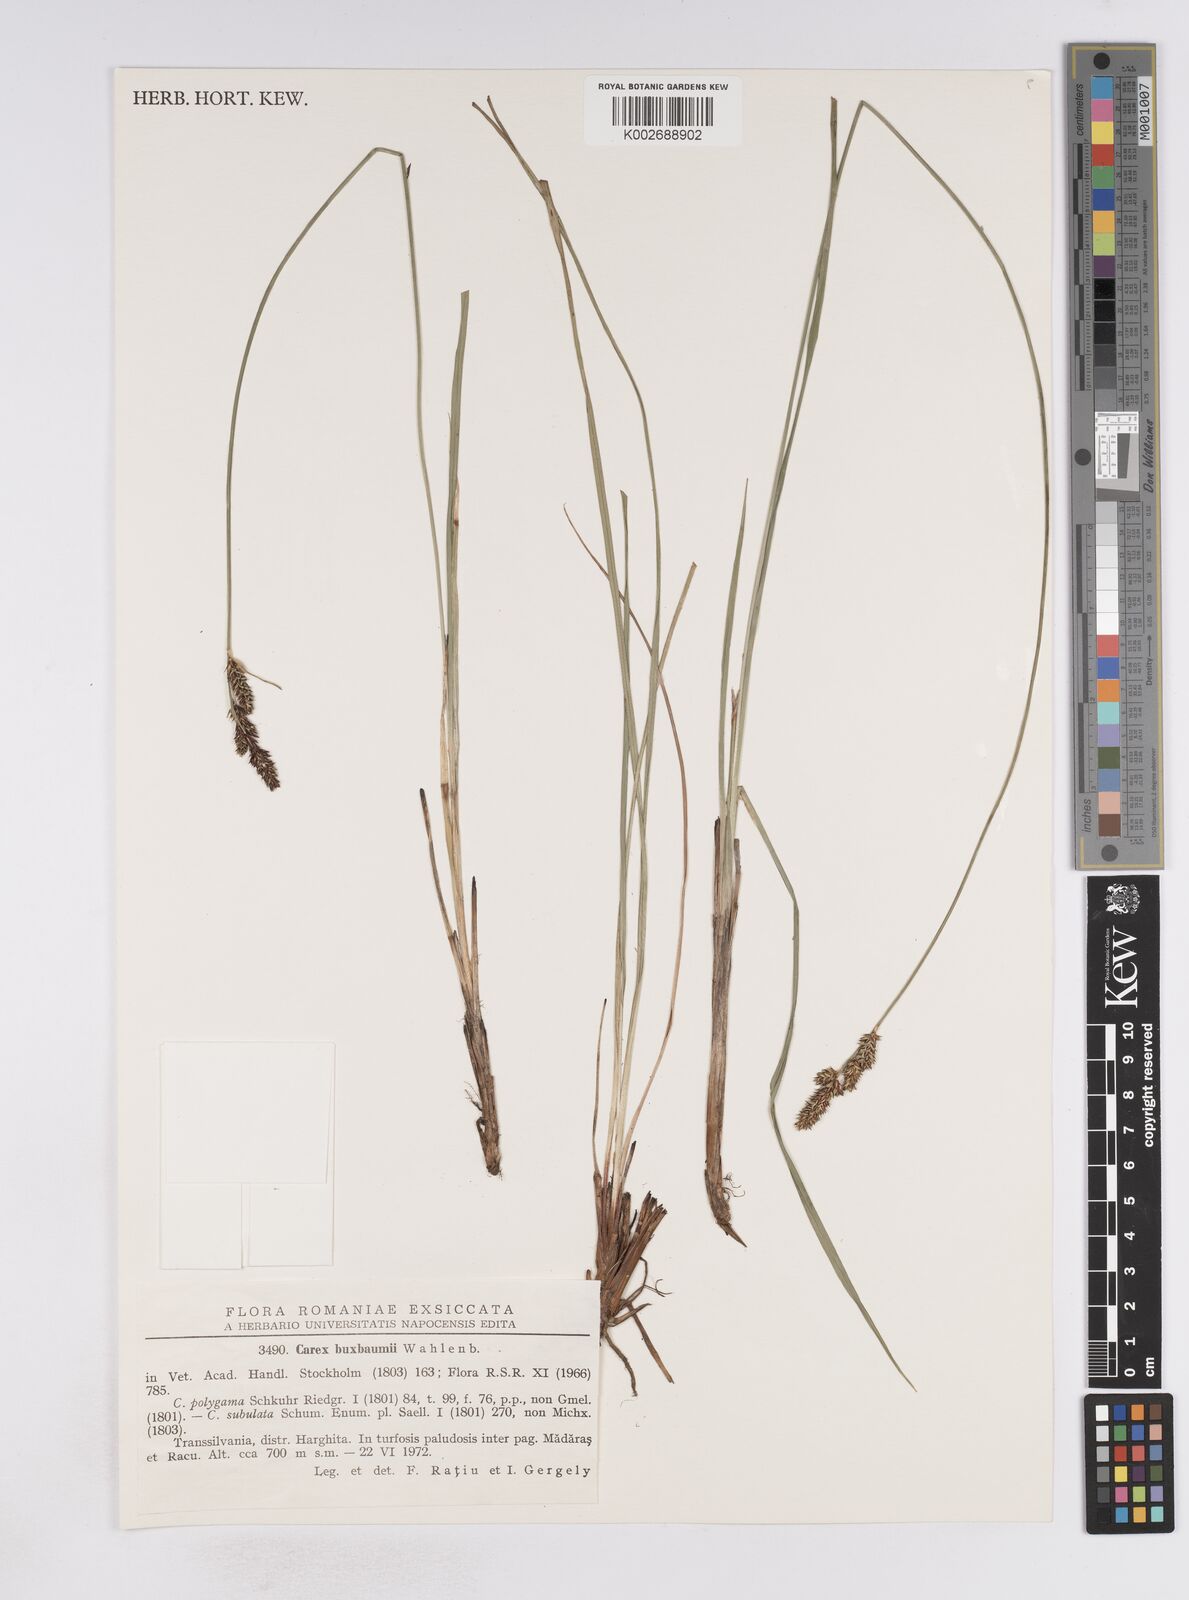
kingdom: Plantae
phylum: Tracheophyta
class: Liliopsida
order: Poales
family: Cyperaceae
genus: Carex
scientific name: Carex buxbaumii
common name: Club sedge
